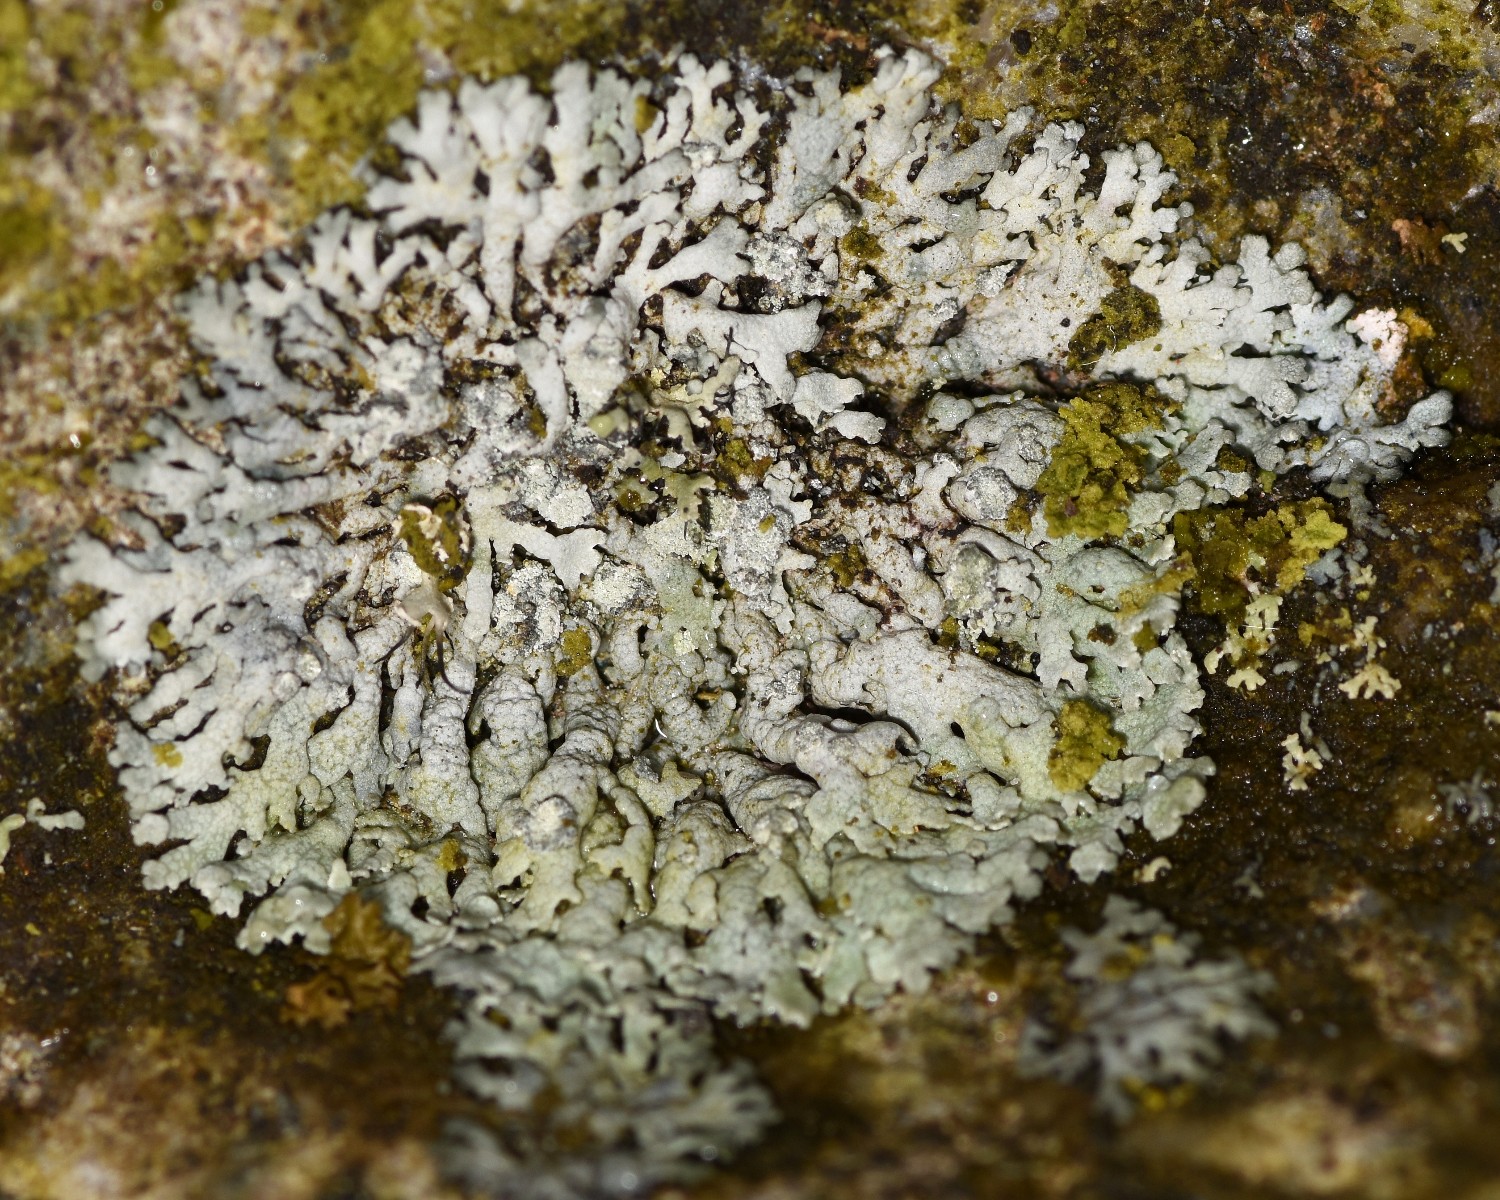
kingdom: Fungi
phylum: Ascomycota
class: Lecanoromycetes
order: Caliciales
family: Physciaceae
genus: Physcia
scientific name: Physcia dubia
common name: fuglestens-rosetlav
